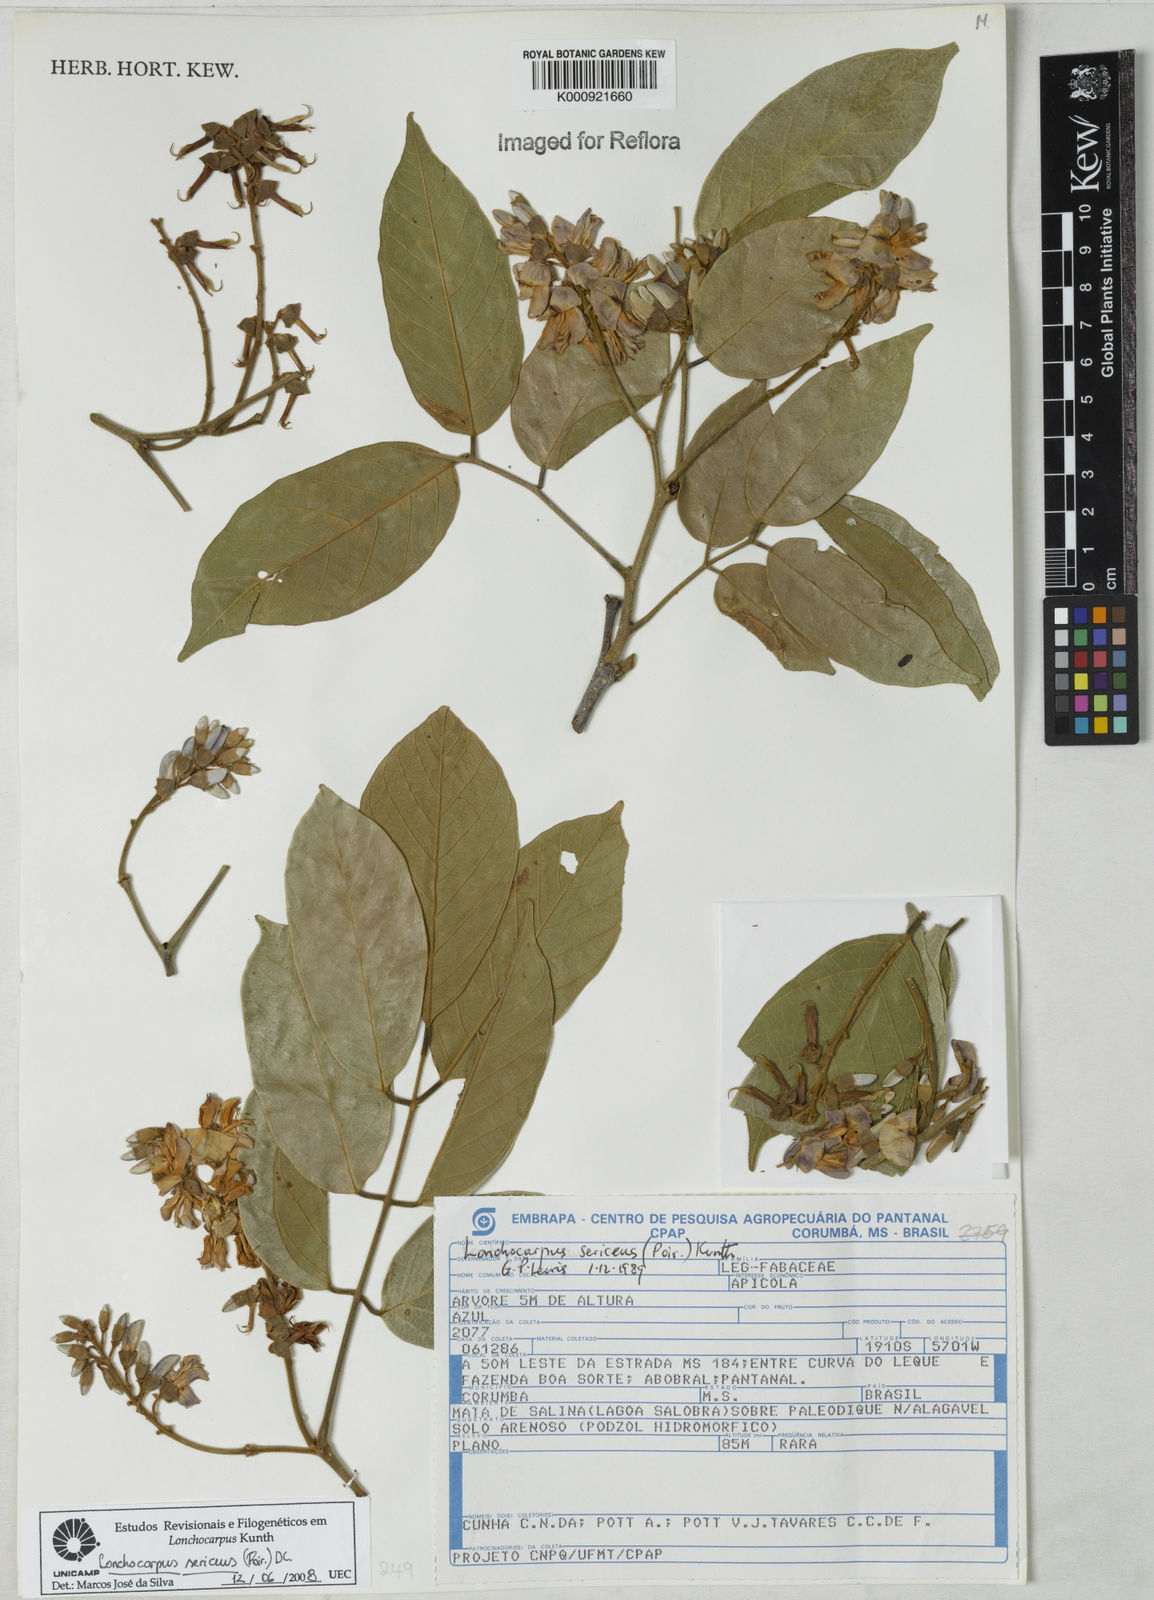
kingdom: Plantae
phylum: Tracheophyta
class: Magnoliopsida
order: Fabales
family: Fabaceae
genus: Lonchocarpus
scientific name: Lonchocarpus sericeus
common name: Savonette
